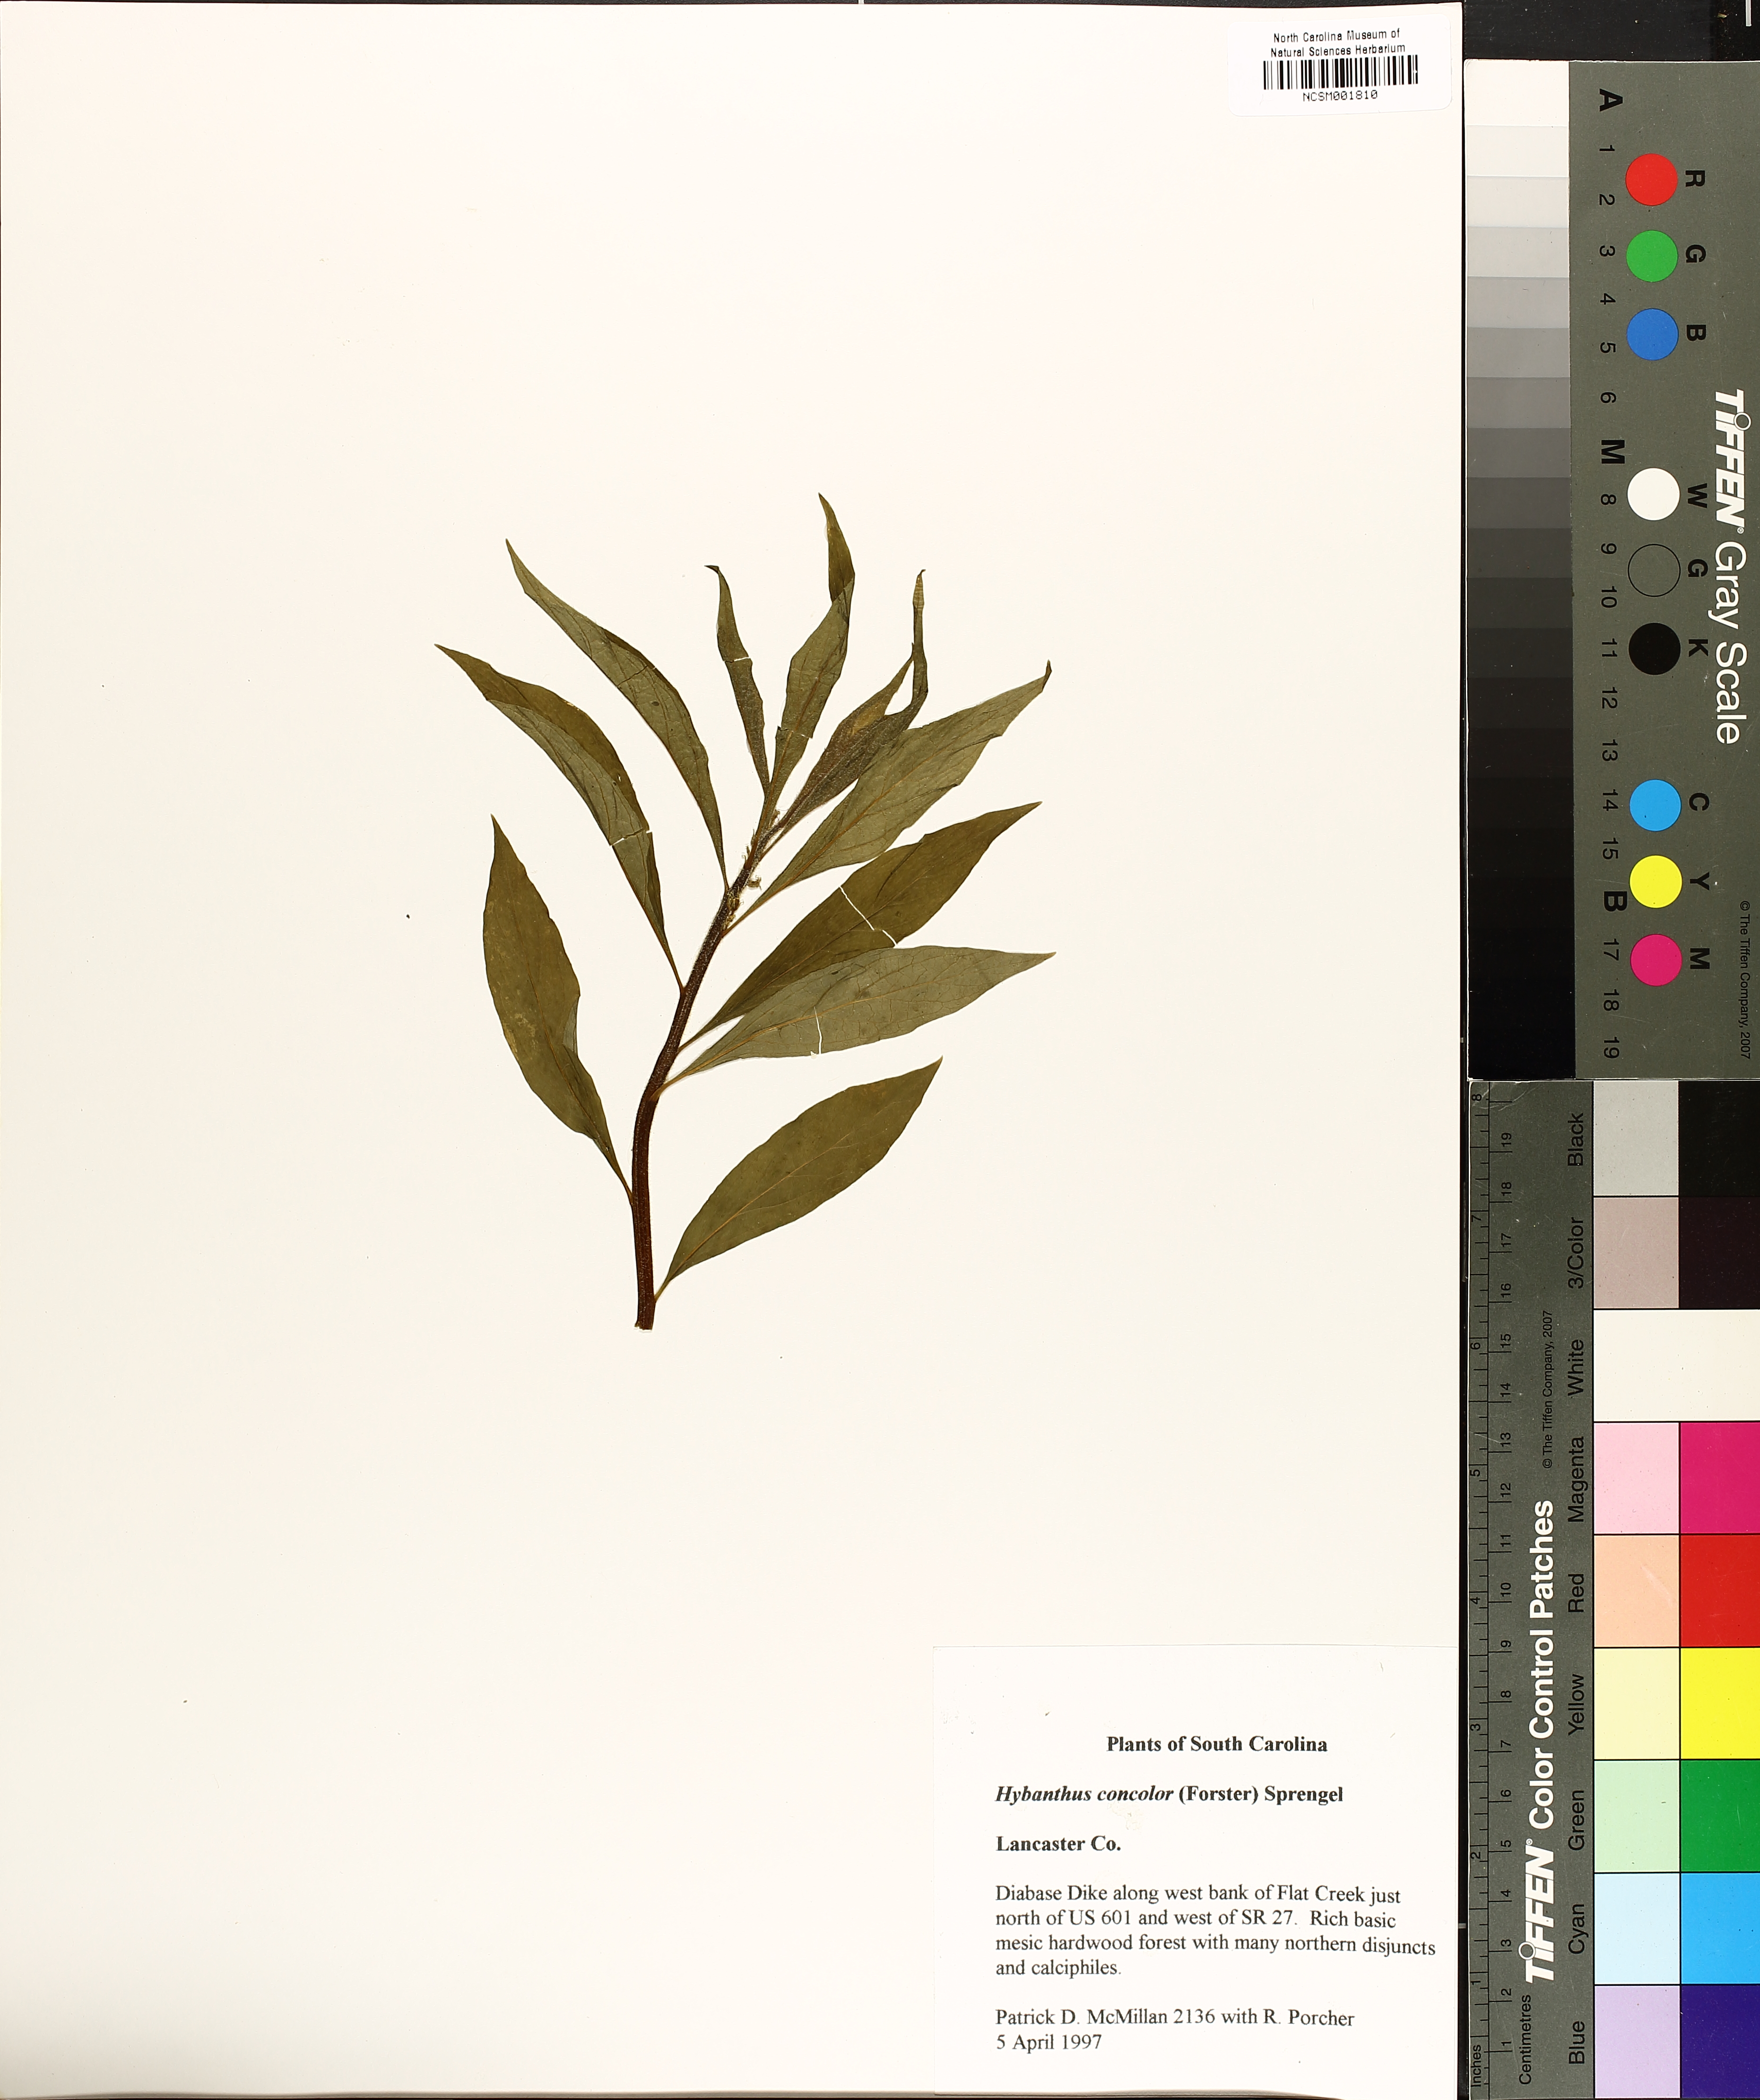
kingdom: Plantae
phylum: Tracheophyta
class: Magnoliopsida
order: Malpighiales
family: Violaceae
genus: Cubelium
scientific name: Cubelium concolor
